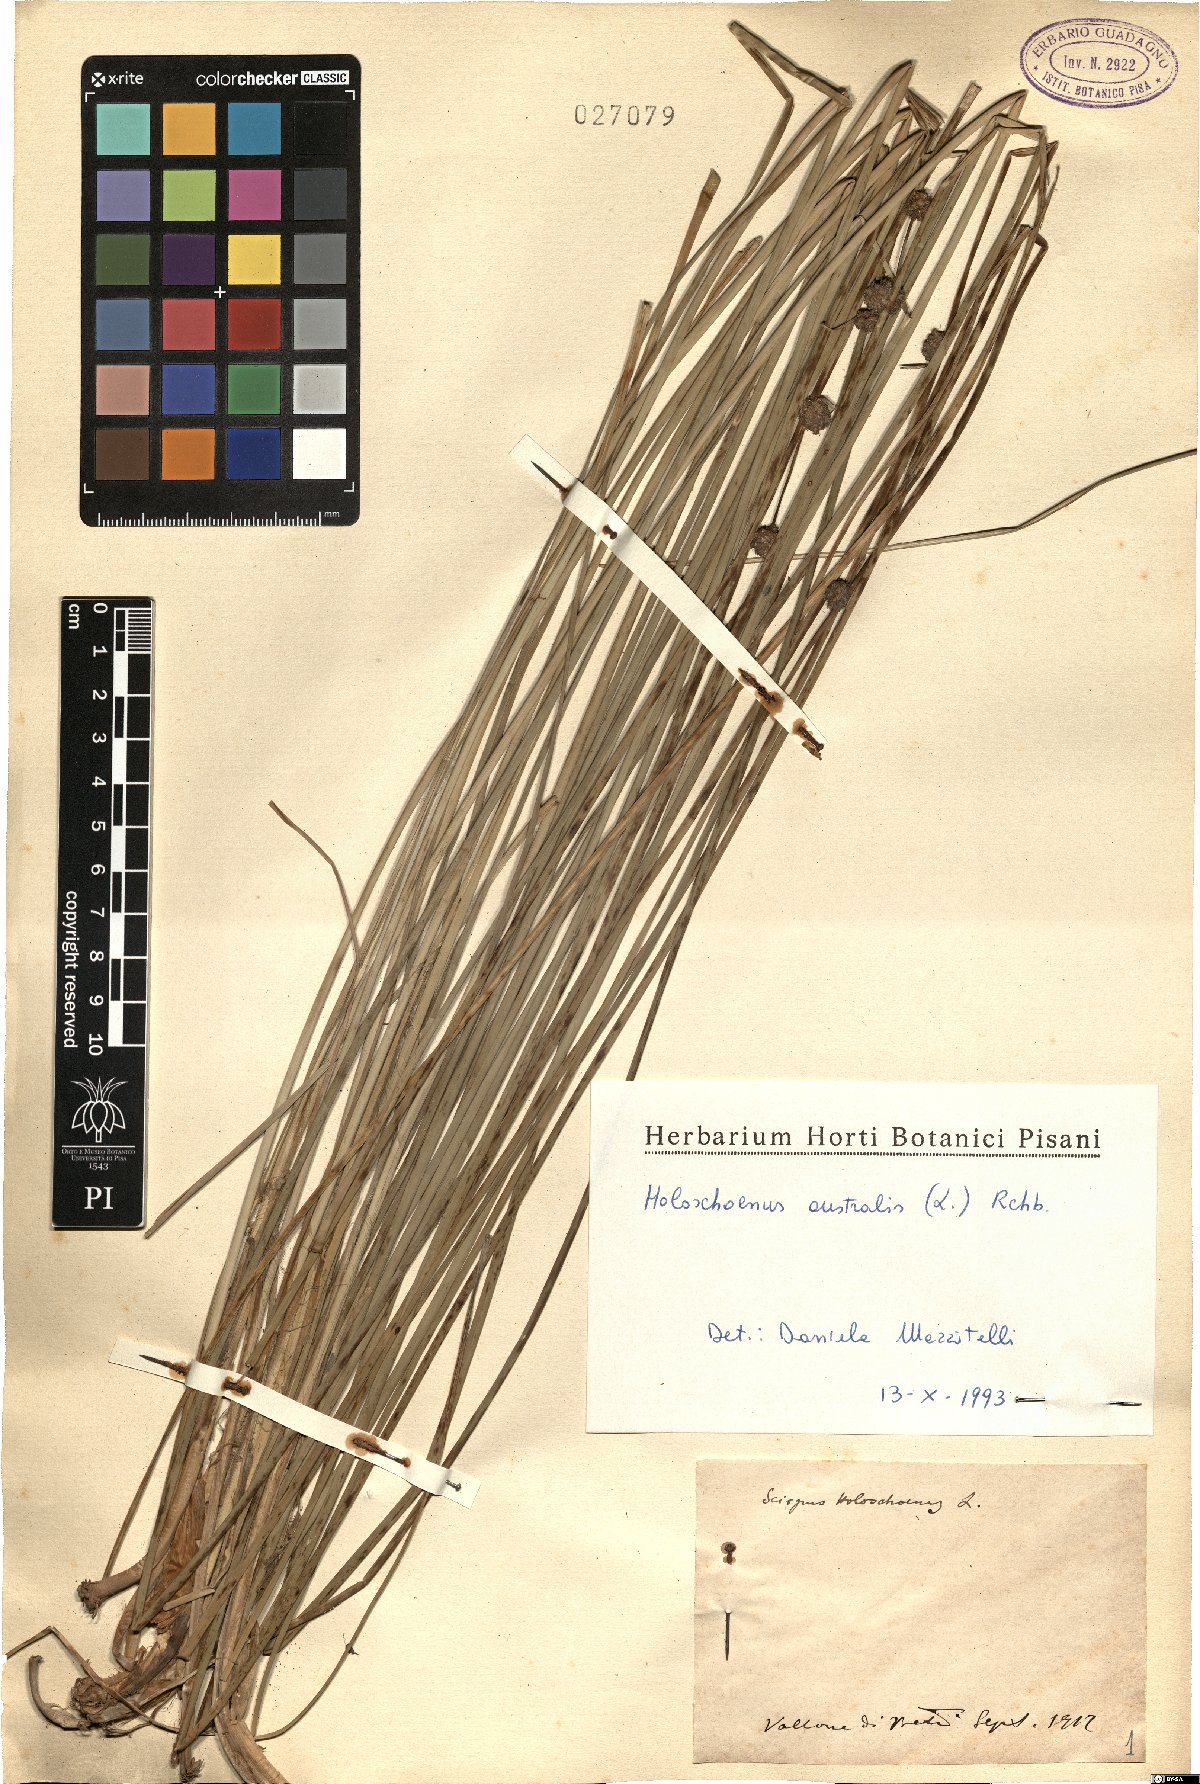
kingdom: Plantae
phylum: Tracheophyta
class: Liliopsida
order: Poales
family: Cyperaceae
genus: Scirpoides
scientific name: Scirpoides holoschoenus
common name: Round-headed club-rush
